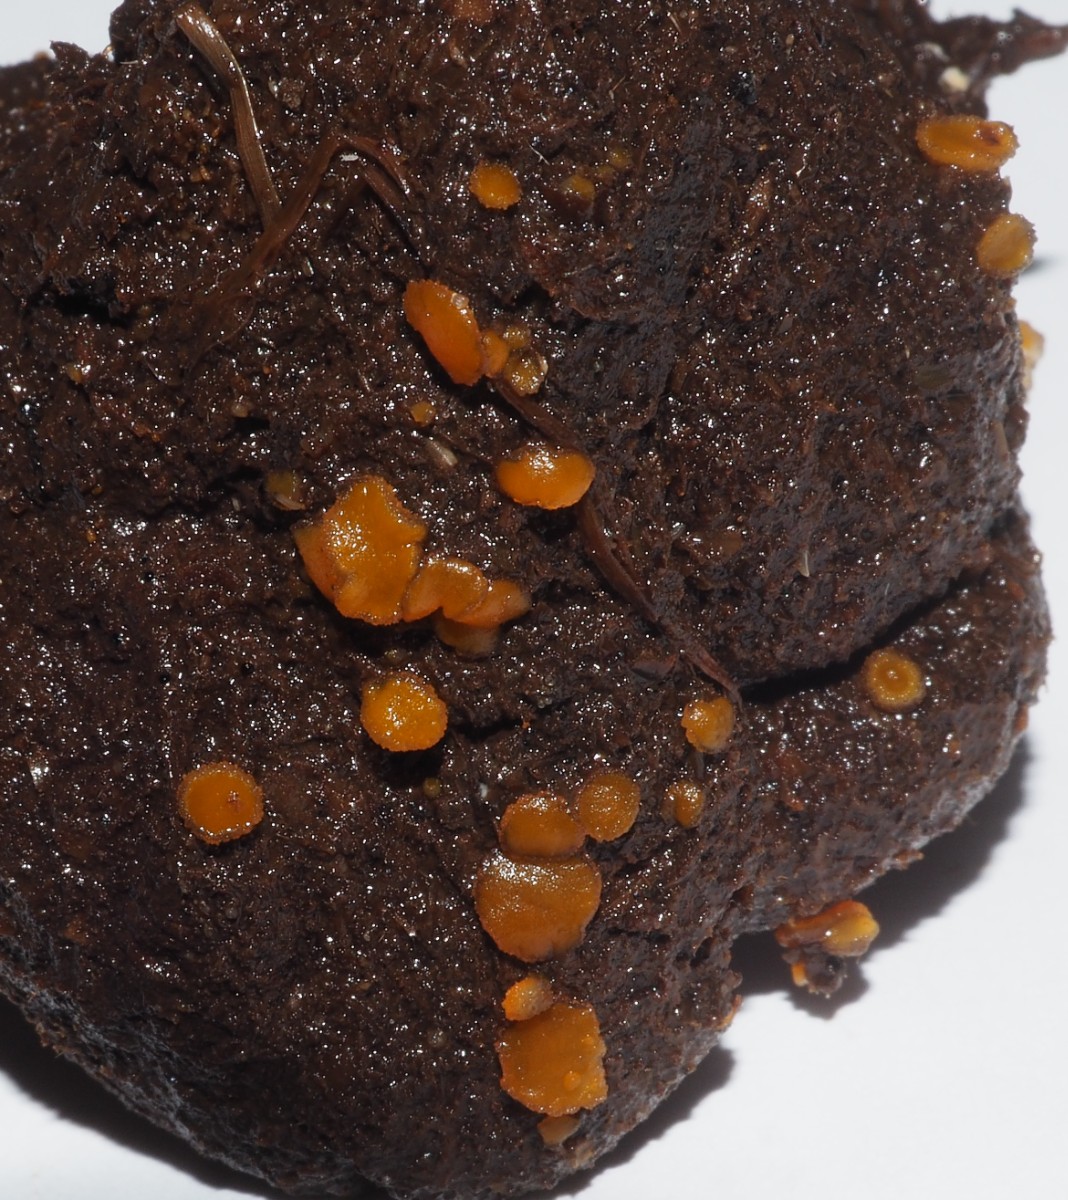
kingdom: Fungi
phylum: Ascomycota
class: Pezizomycetes
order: Pezizales
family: Pyronemataceae
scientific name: Pyronemataceae
